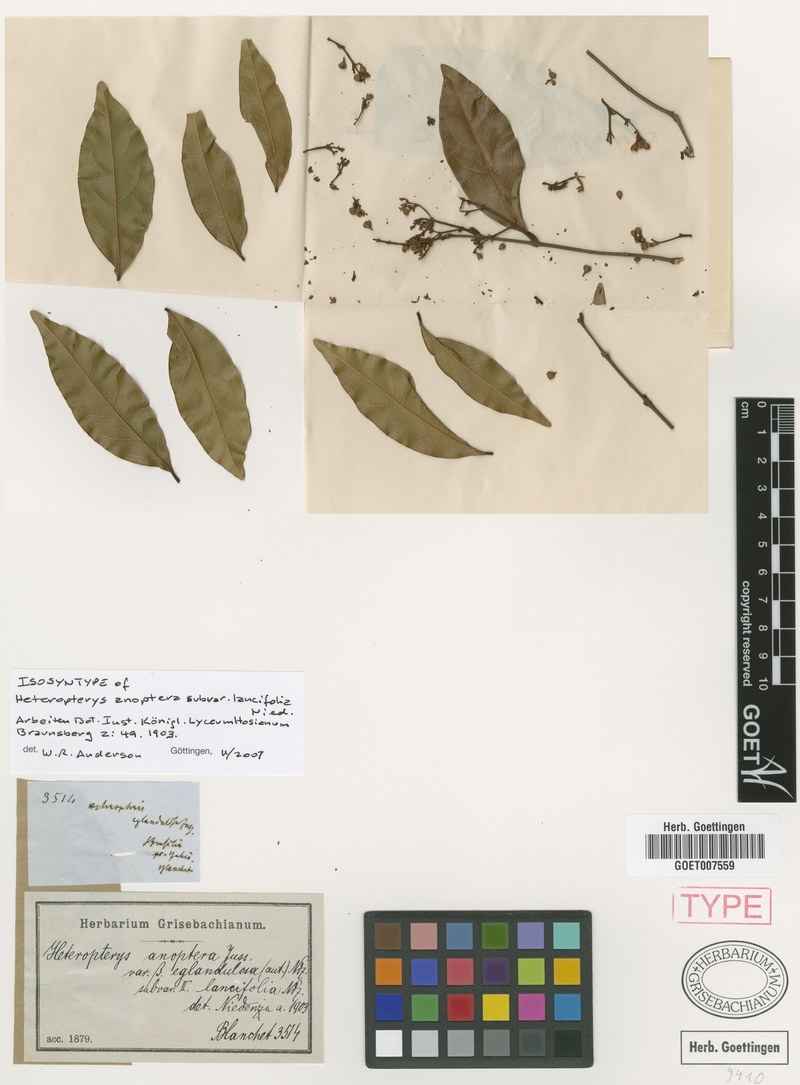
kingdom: Plantae
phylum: Tracheophyta
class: Magnoliopsida
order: Malpighiales
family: Malpighiaceae
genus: Heteropterys
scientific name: Heteropterys anoptera
